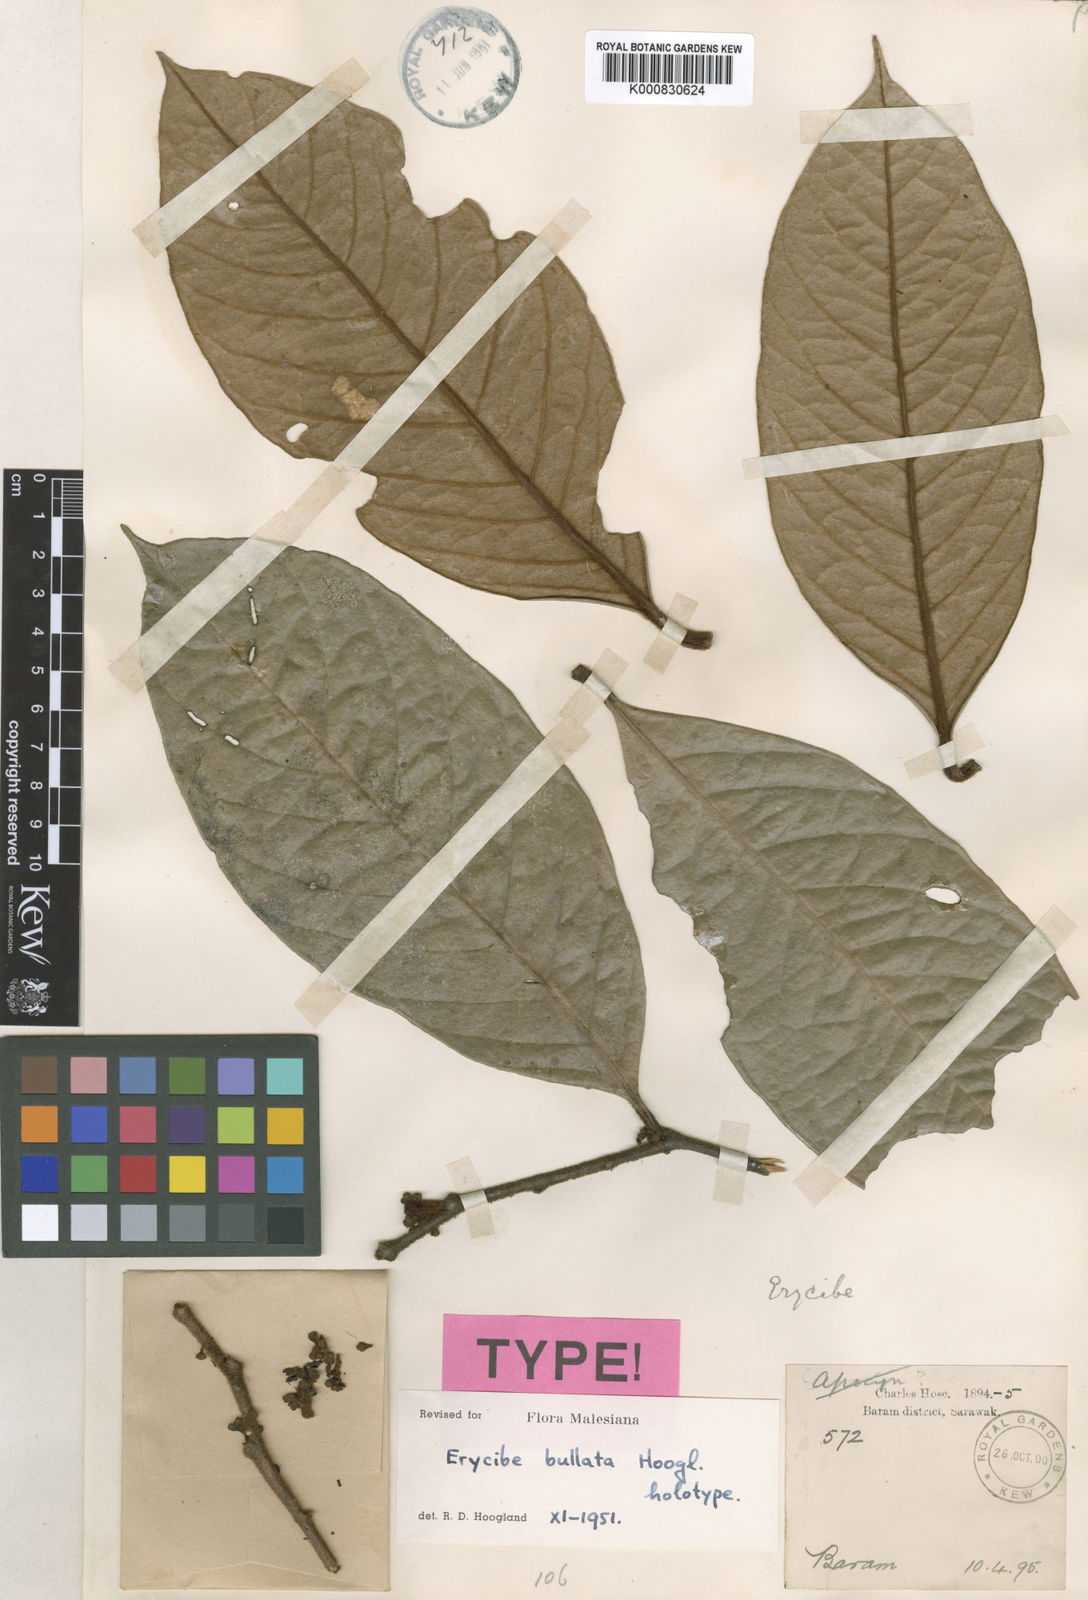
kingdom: Plantae
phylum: Tracheophyta
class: Magnoliopsida
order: Solanales
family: Convolvulaceae
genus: Erycibe
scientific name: Erycibe bullata
